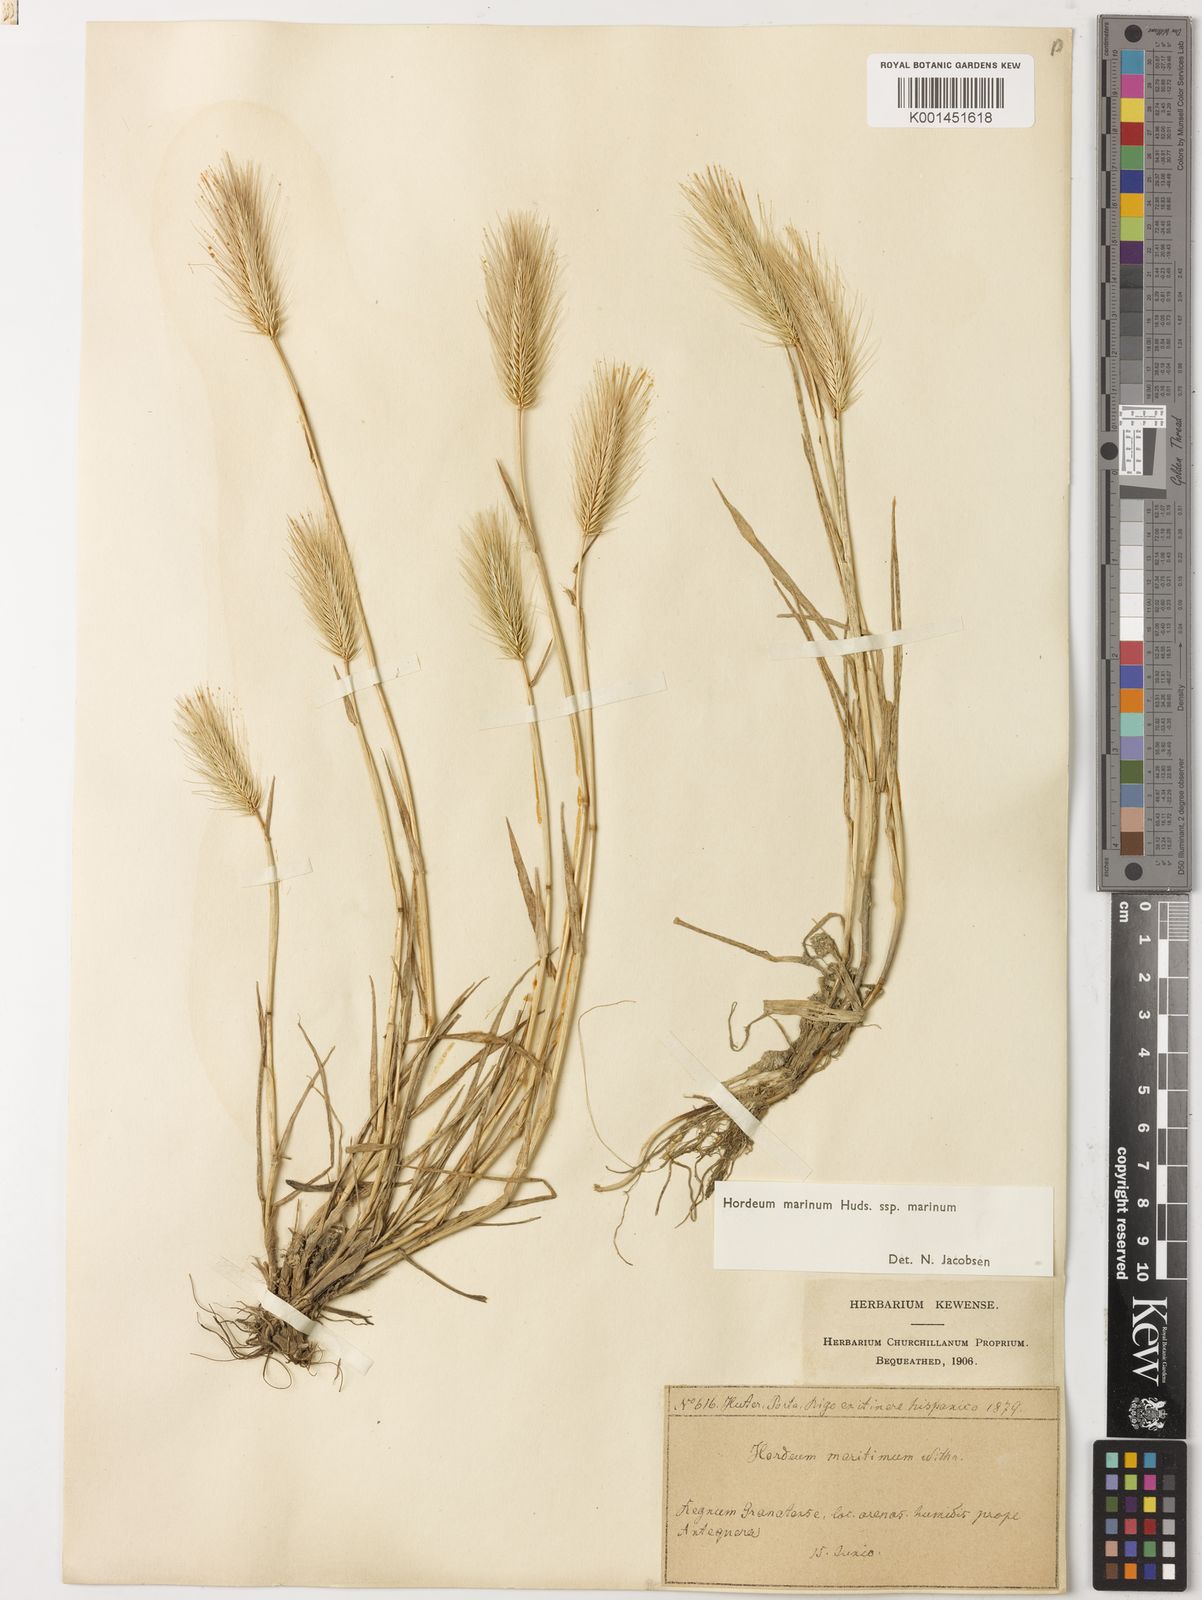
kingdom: Plantae
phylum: Tracheophyta
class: Liliopsida
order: Poales
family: Poaceae
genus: Hordeum
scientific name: Hordeum marinum
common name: Sea barley
